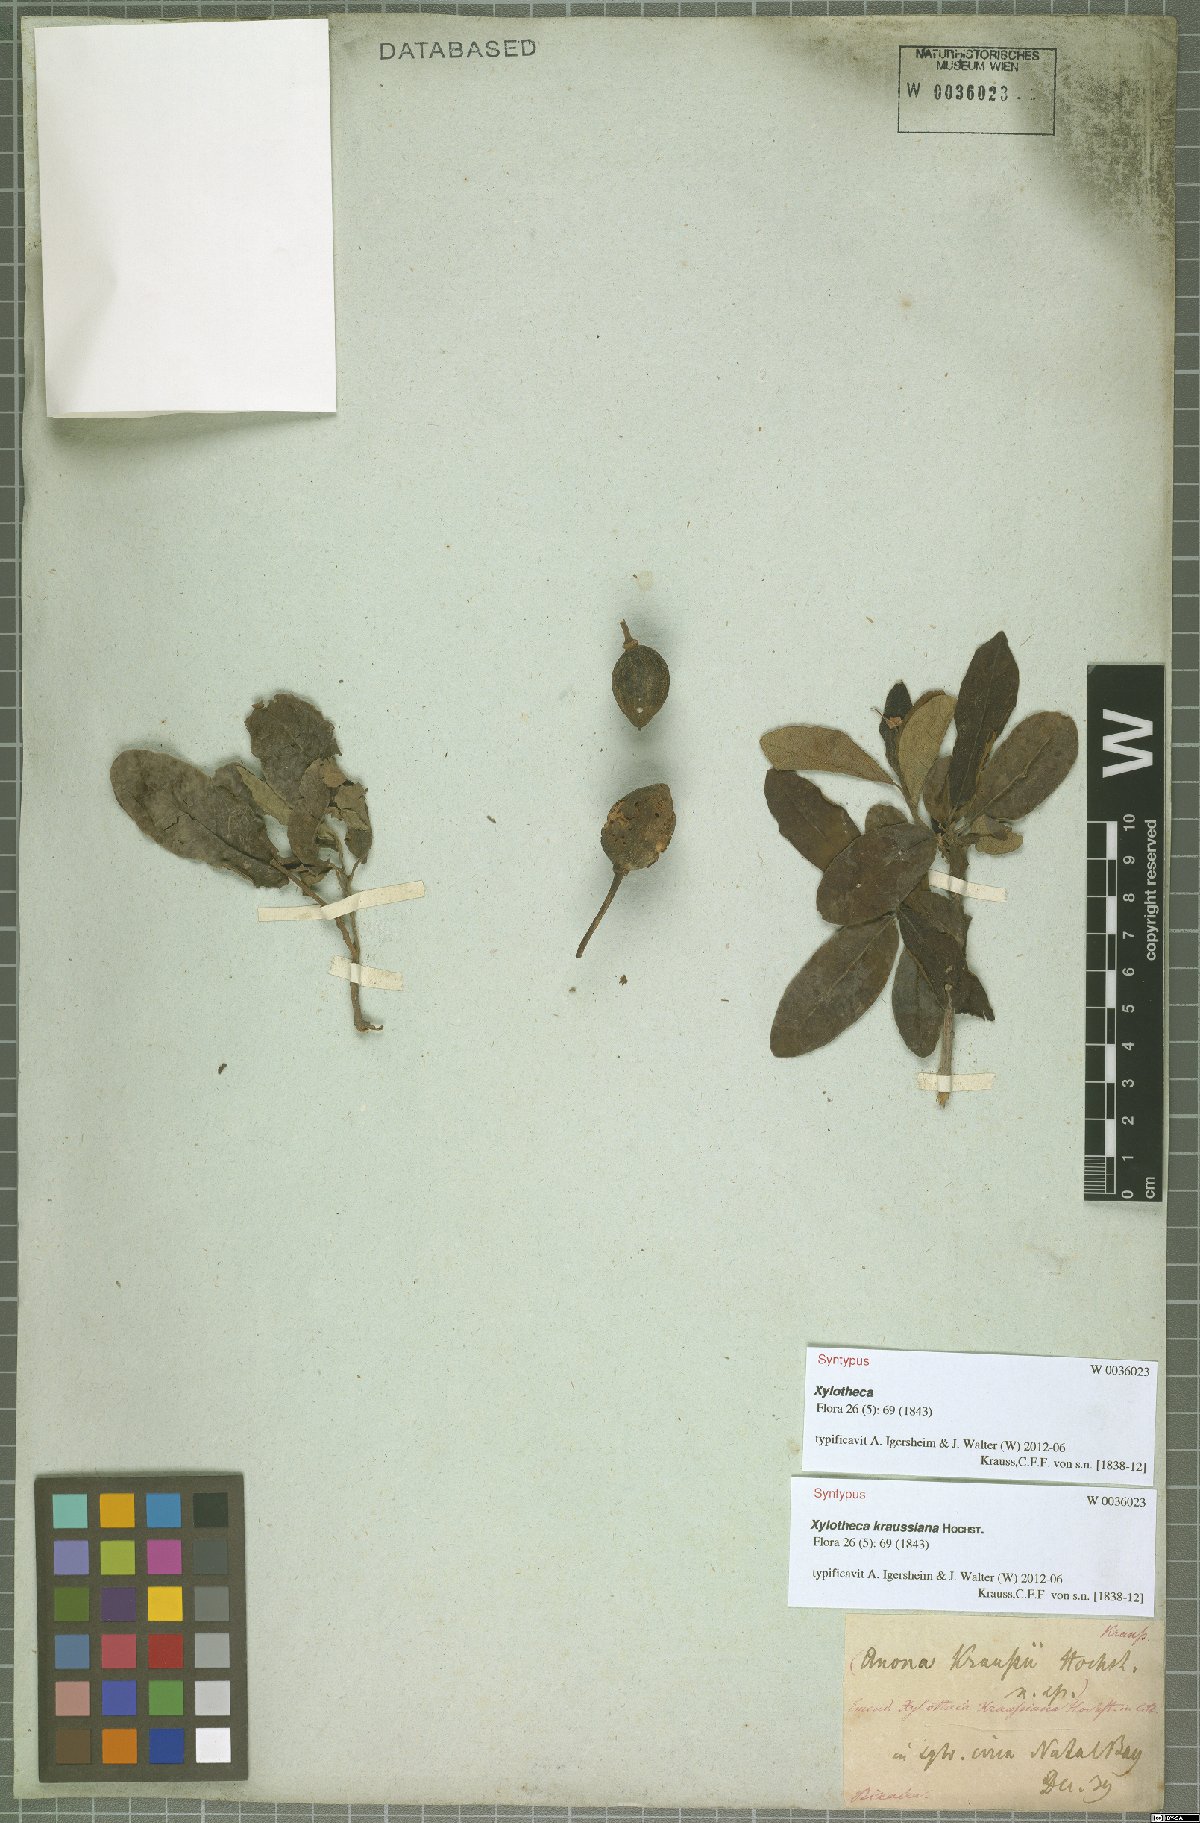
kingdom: Plantae
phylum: Tracheophyta
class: Magnoliopsida
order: Malpighiales
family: Achariaceae
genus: Xylotheca
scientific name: Xylotheca kraussiana
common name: African dog rose
